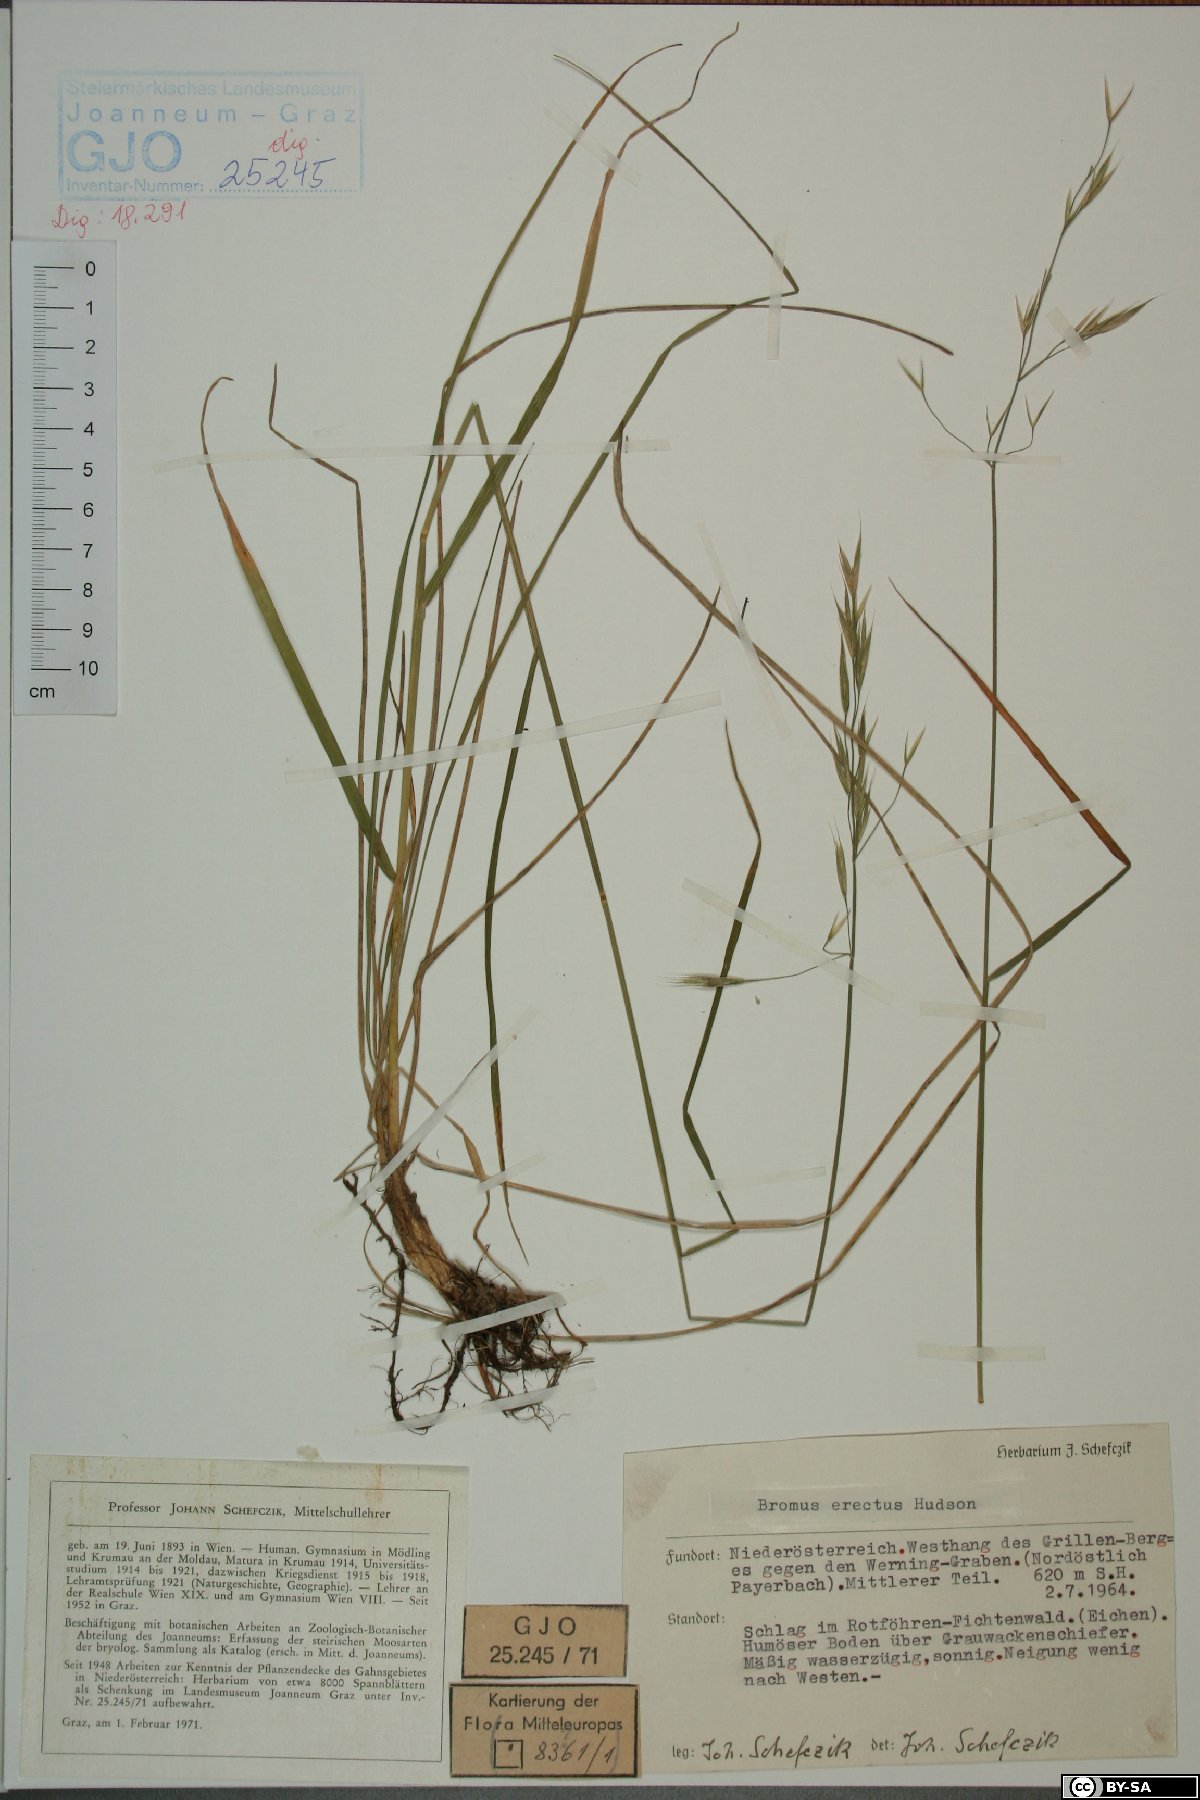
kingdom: Plantae
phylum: Tracheophyta
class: Liliopsida
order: Poales
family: Poaceae
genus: Bromus
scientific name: Bromus erectus
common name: Erect brome
